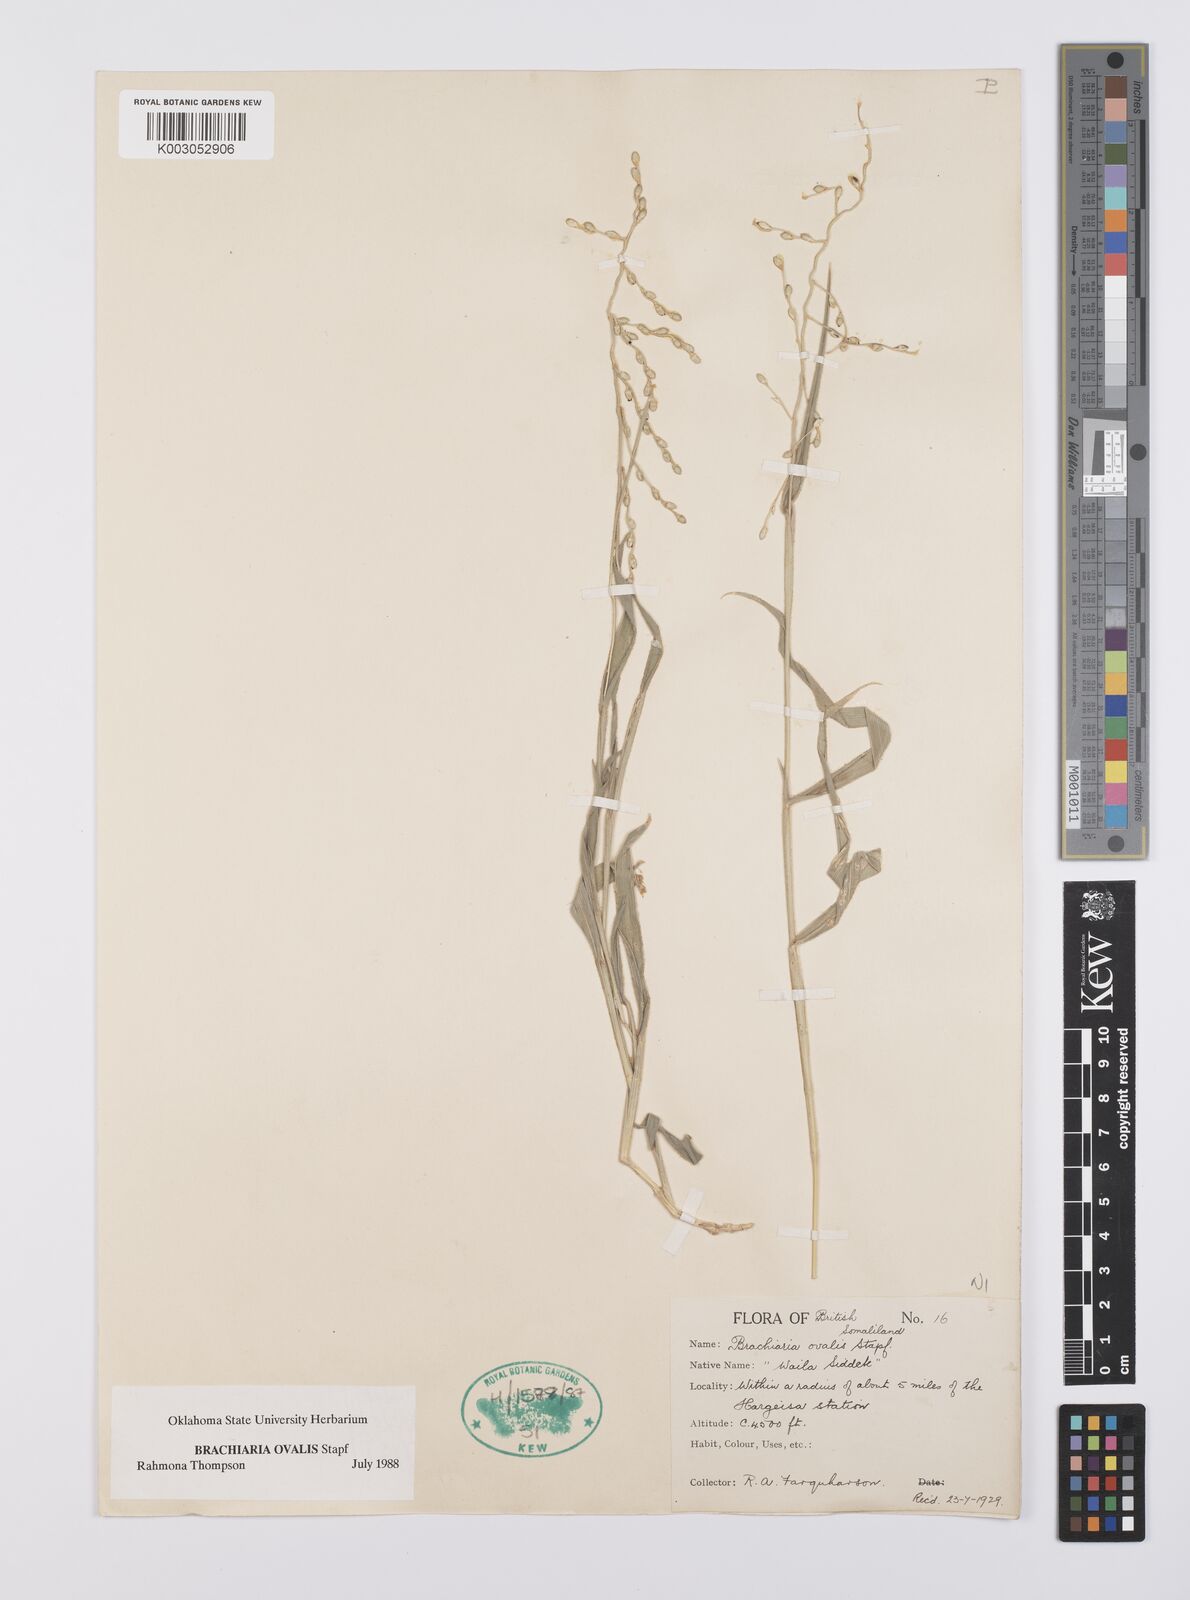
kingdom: Plantae
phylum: Tracheophyta
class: Liliopsida
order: Poales
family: Poaceae
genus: Urochloa
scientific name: Urochloa ovalis
